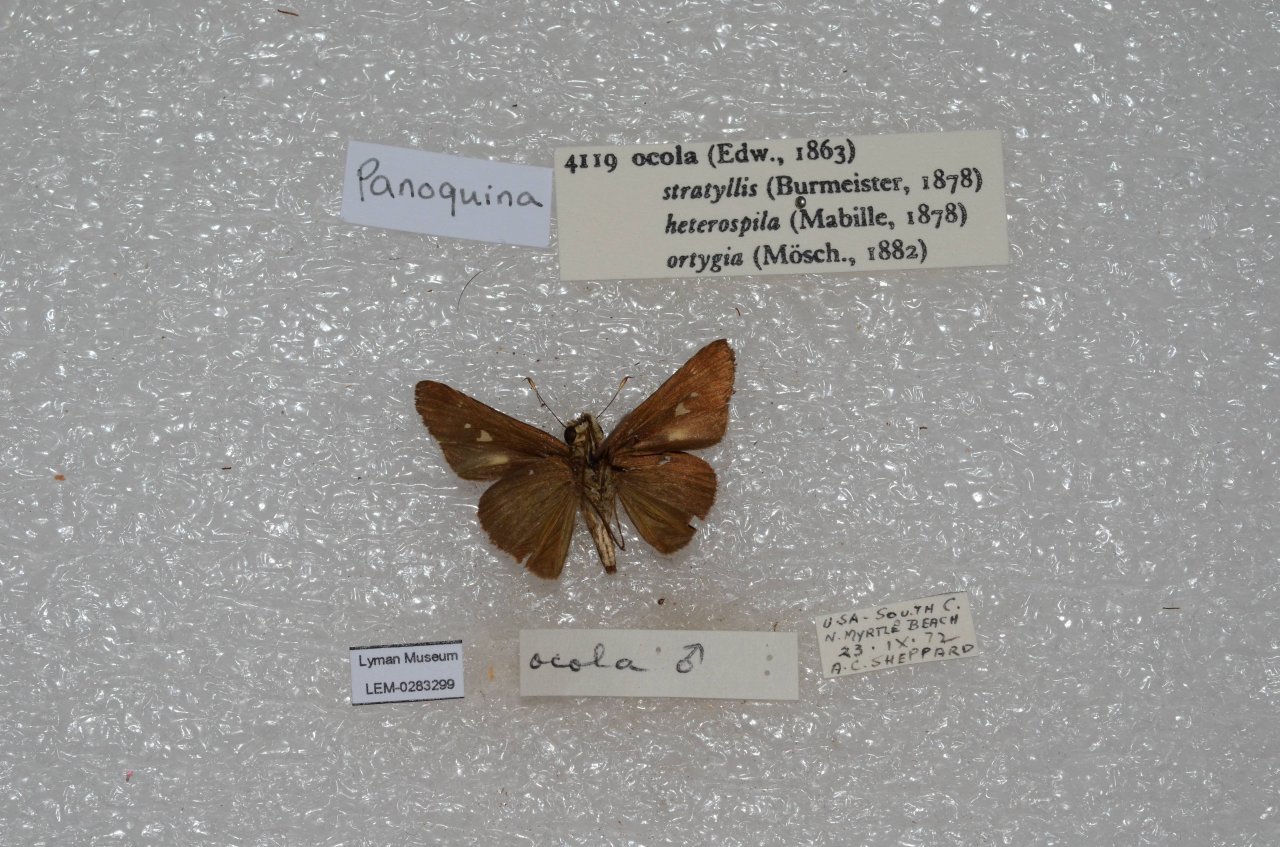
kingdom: Animalia
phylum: Arthropoda
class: Insecta
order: Lepidoptera
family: Hesperiidae
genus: Panoquina
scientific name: Panoquina ocola
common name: Ocola Skipper
